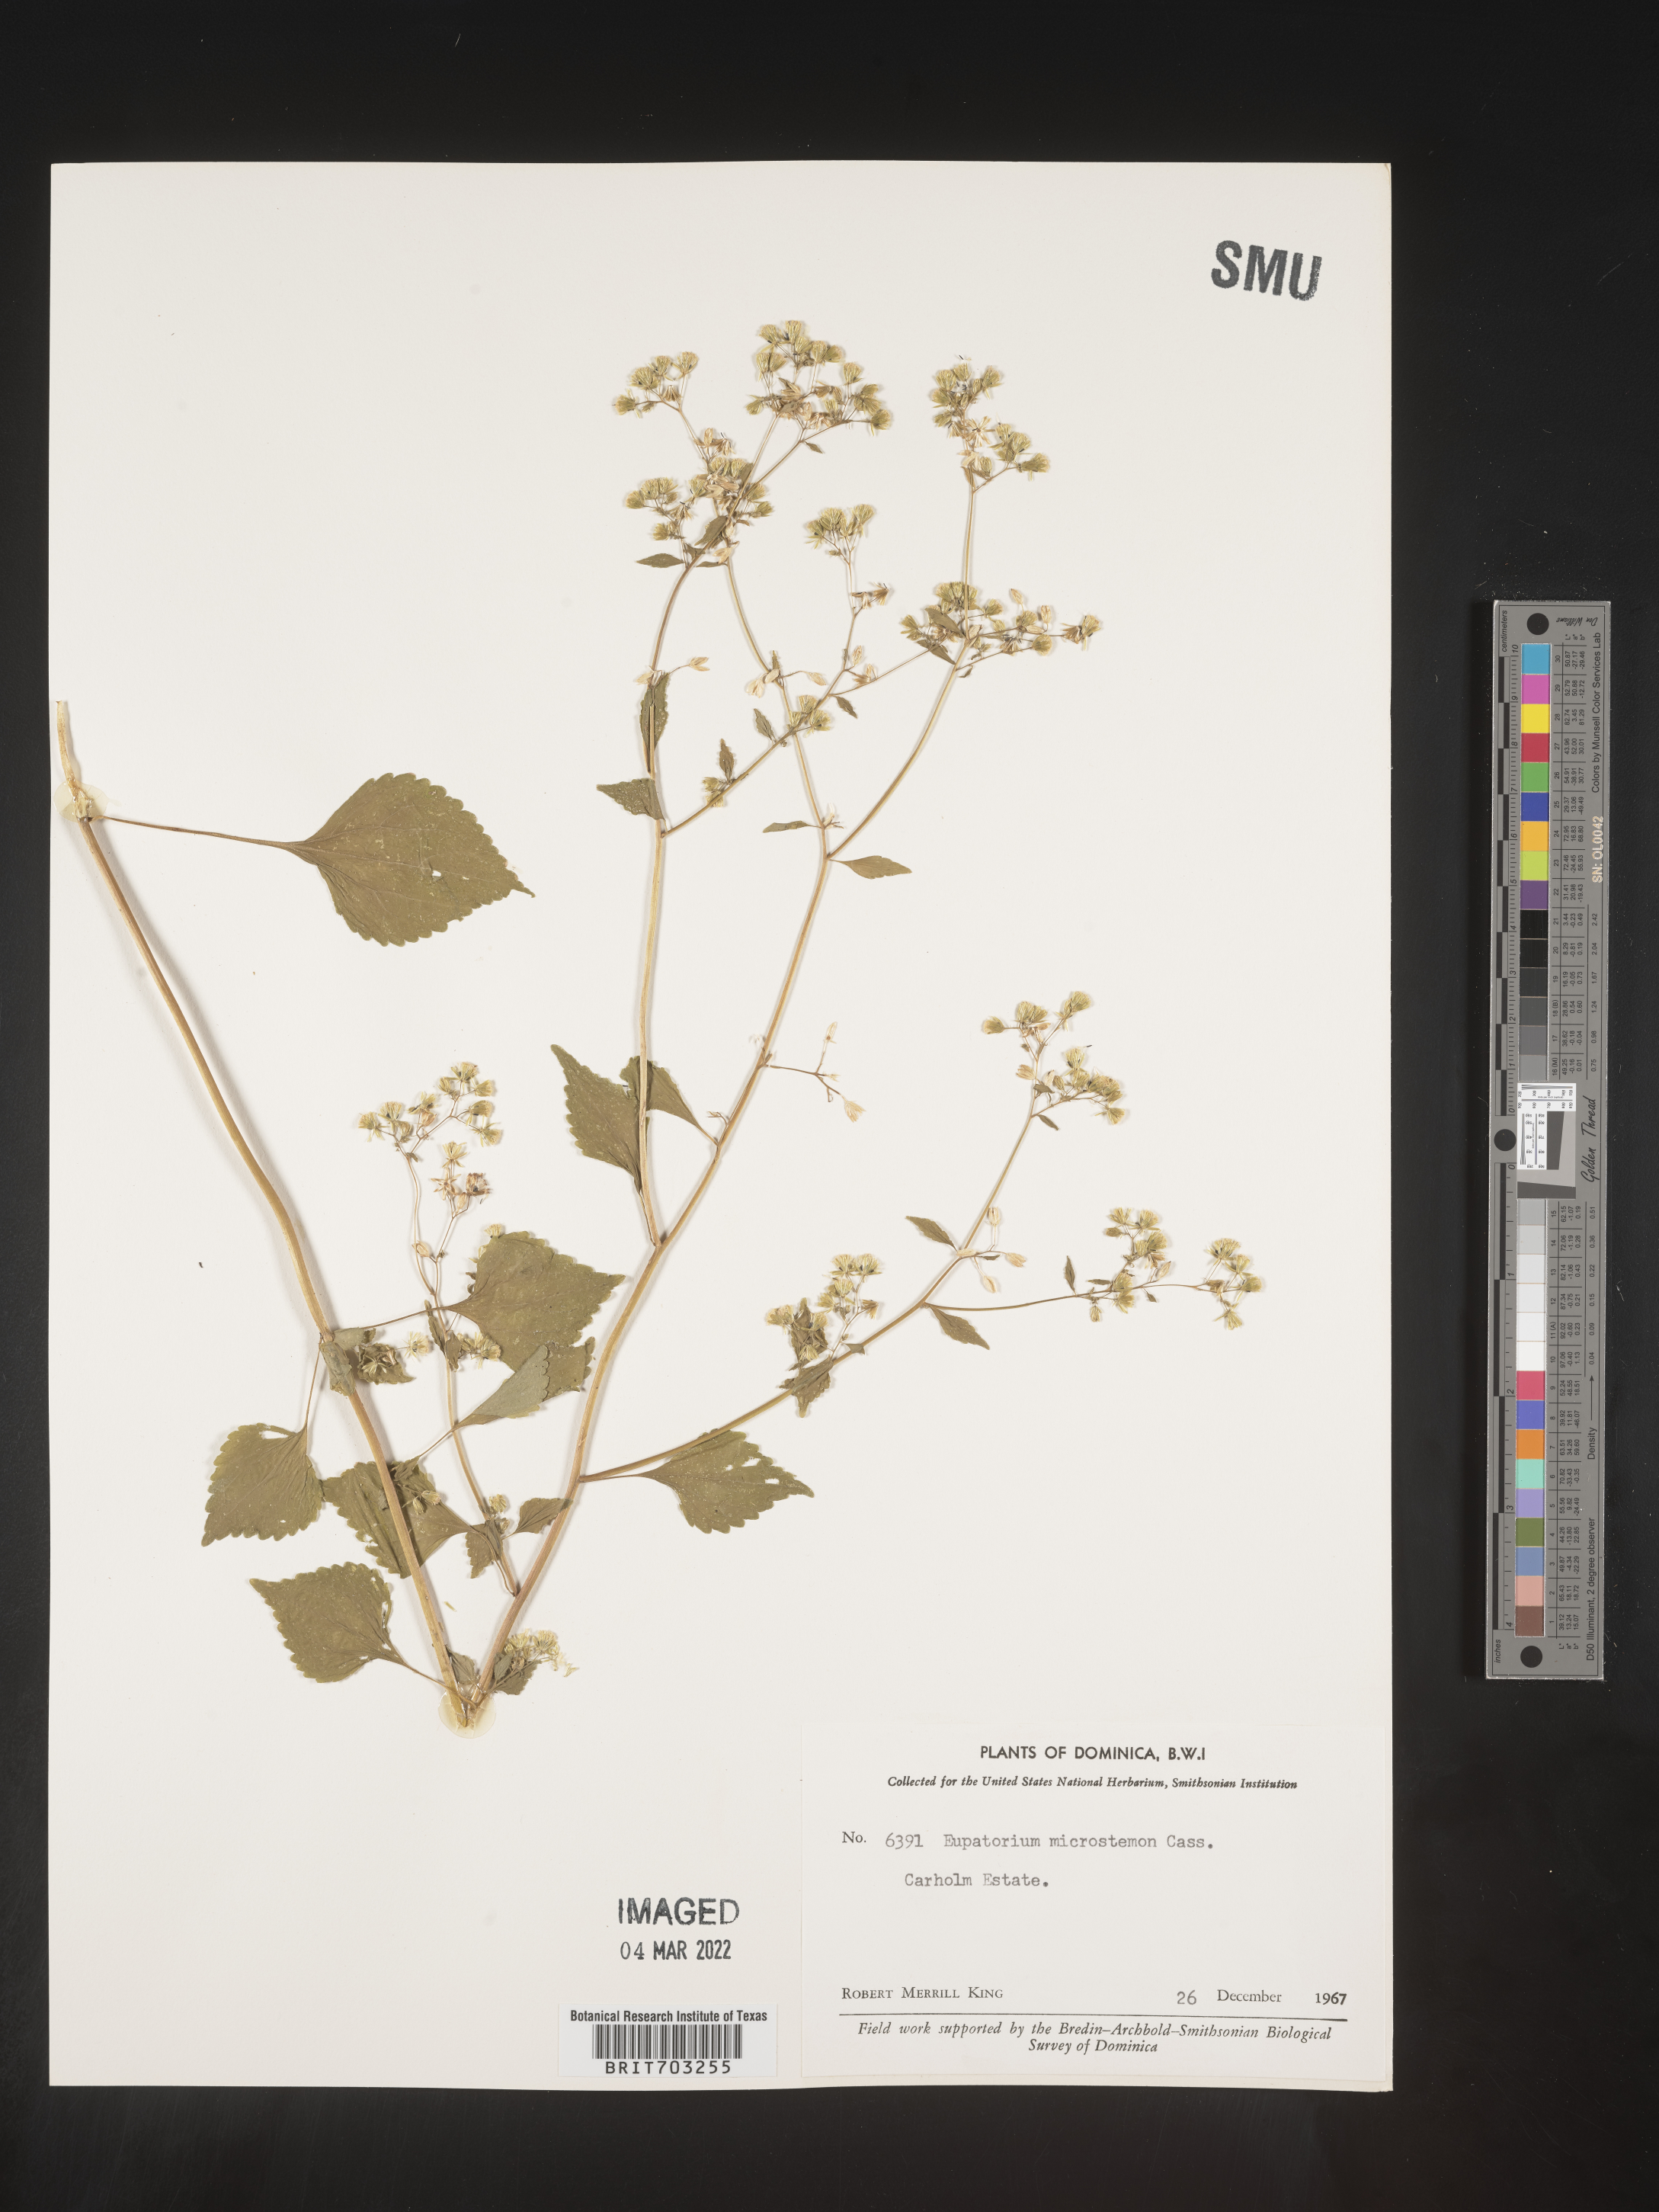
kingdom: Plantae
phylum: Tracheophyta
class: Magnoliopsida
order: Asterales
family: Asteraceae
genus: Eupatorium
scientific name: Eupatorium
